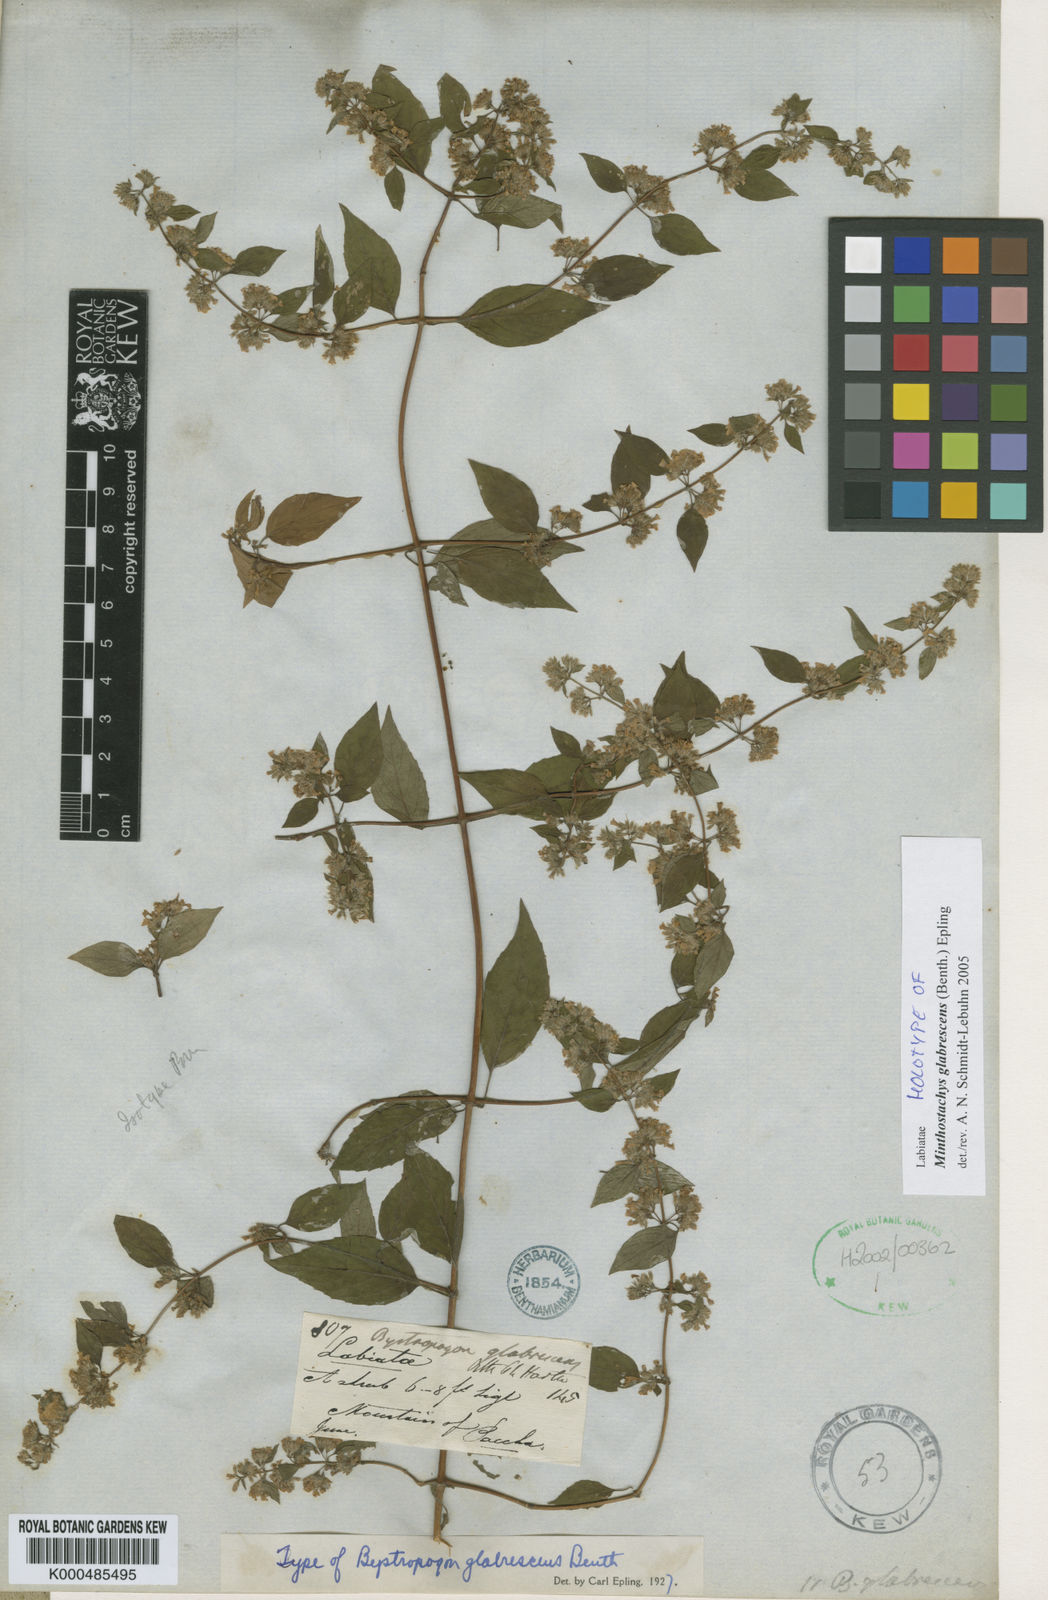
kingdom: Plantae
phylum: Tracheophyta
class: Magnoliopsida
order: Lamiales
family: Lamiaceae
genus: Minthostachys
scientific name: Minthostachys glabrescens
